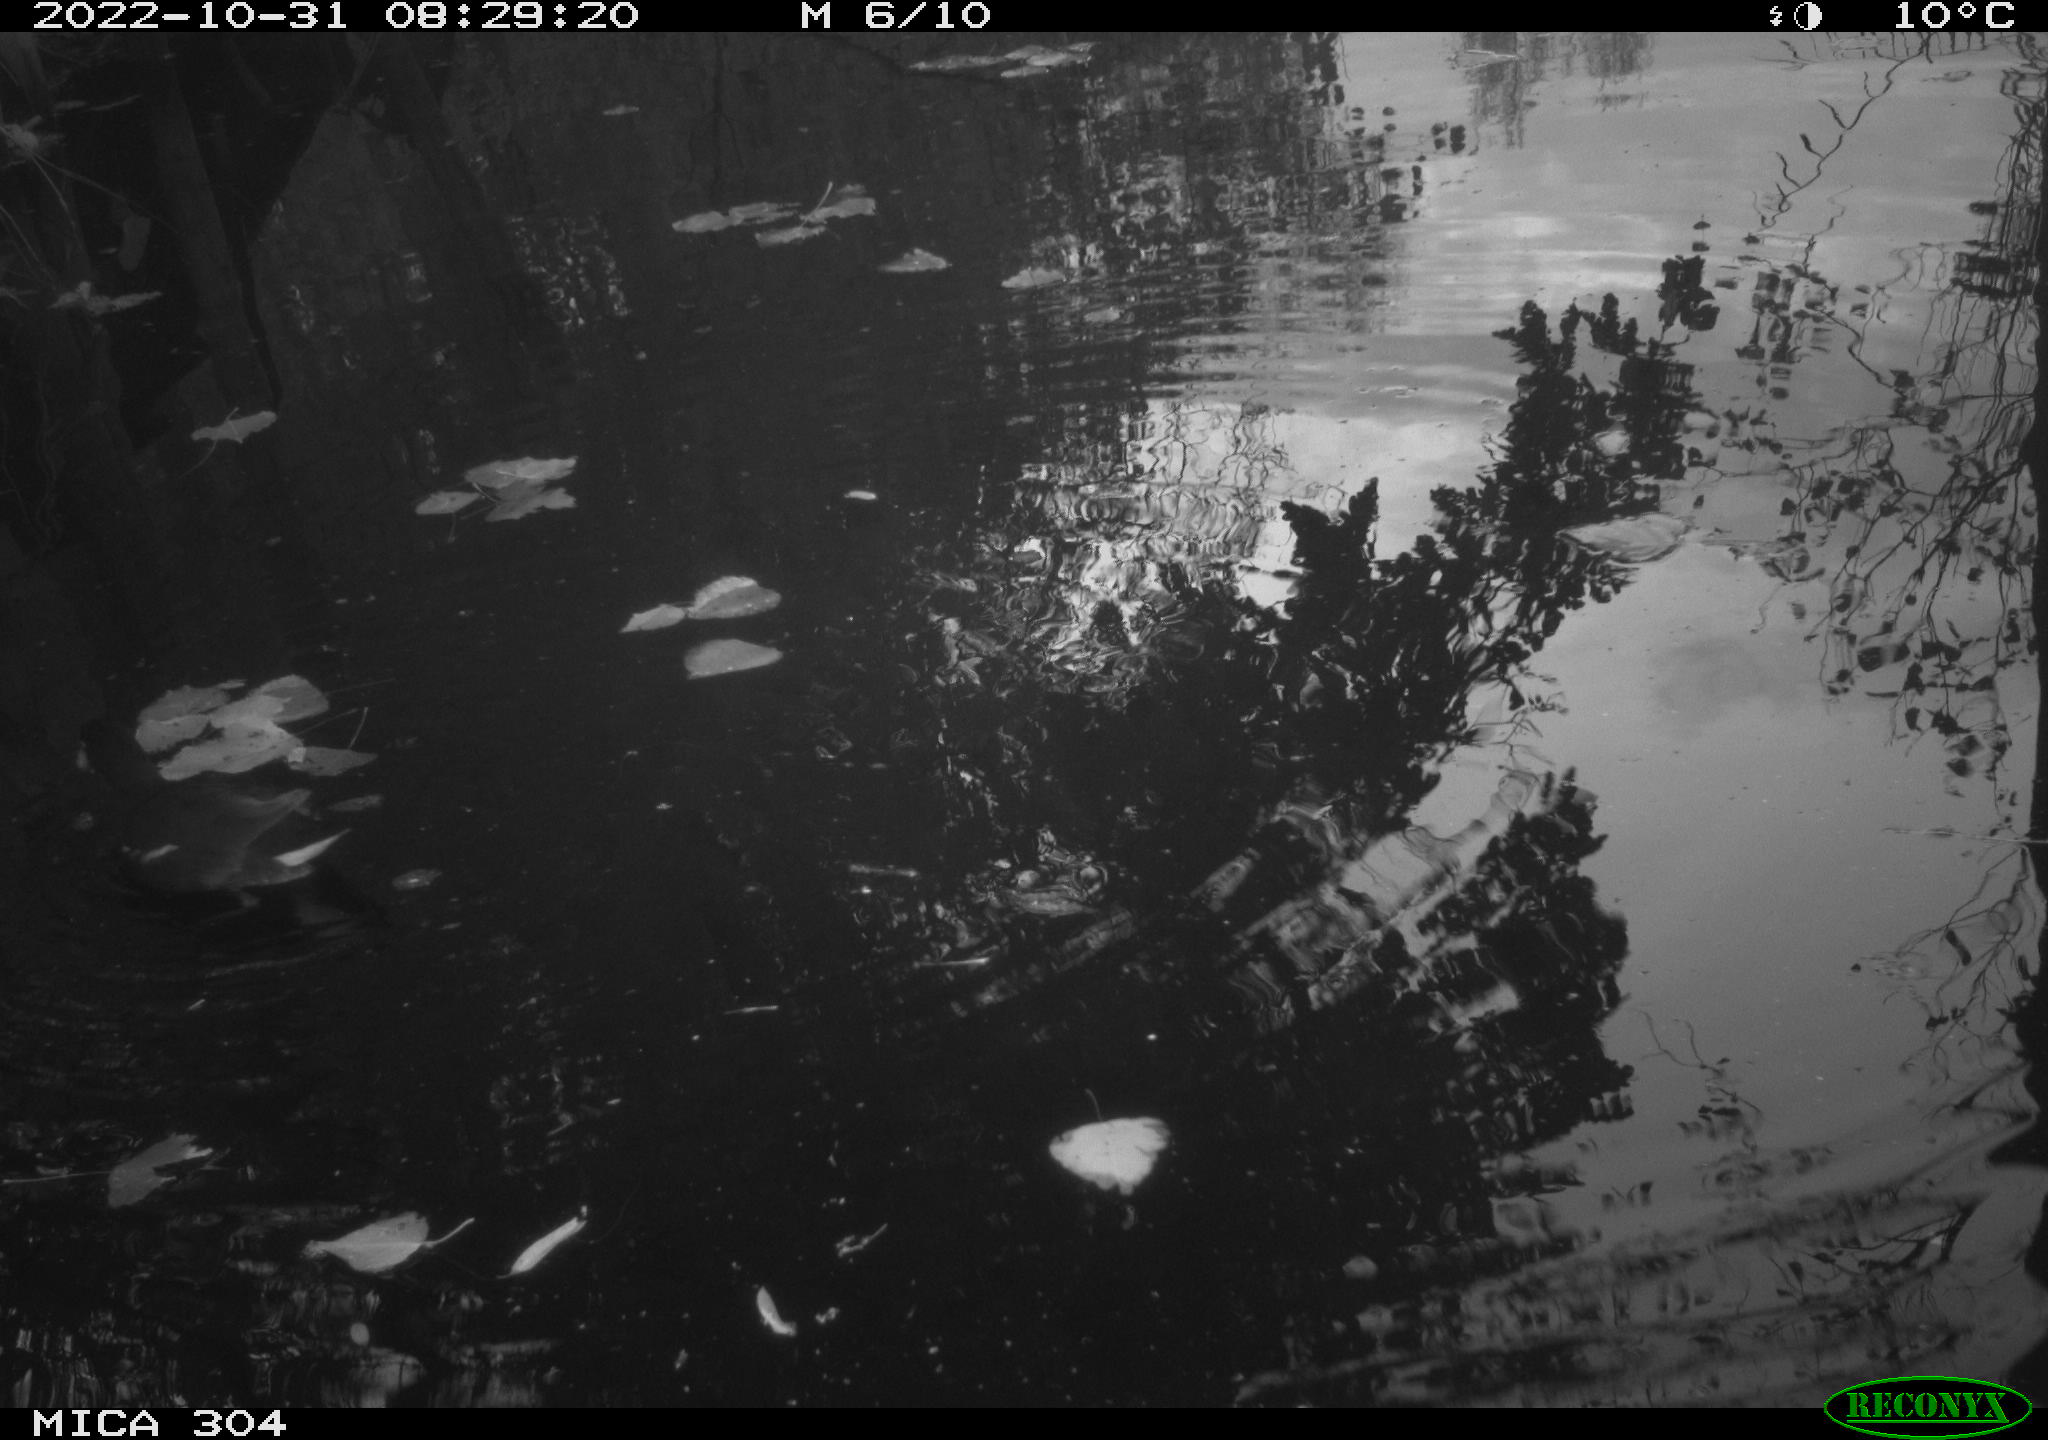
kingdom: Animalia
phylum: Chordata
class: Aves
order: Gruiformes
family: Rallidae
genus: Gallinula
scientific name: Gallinula chloropus
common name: Common moorhen
